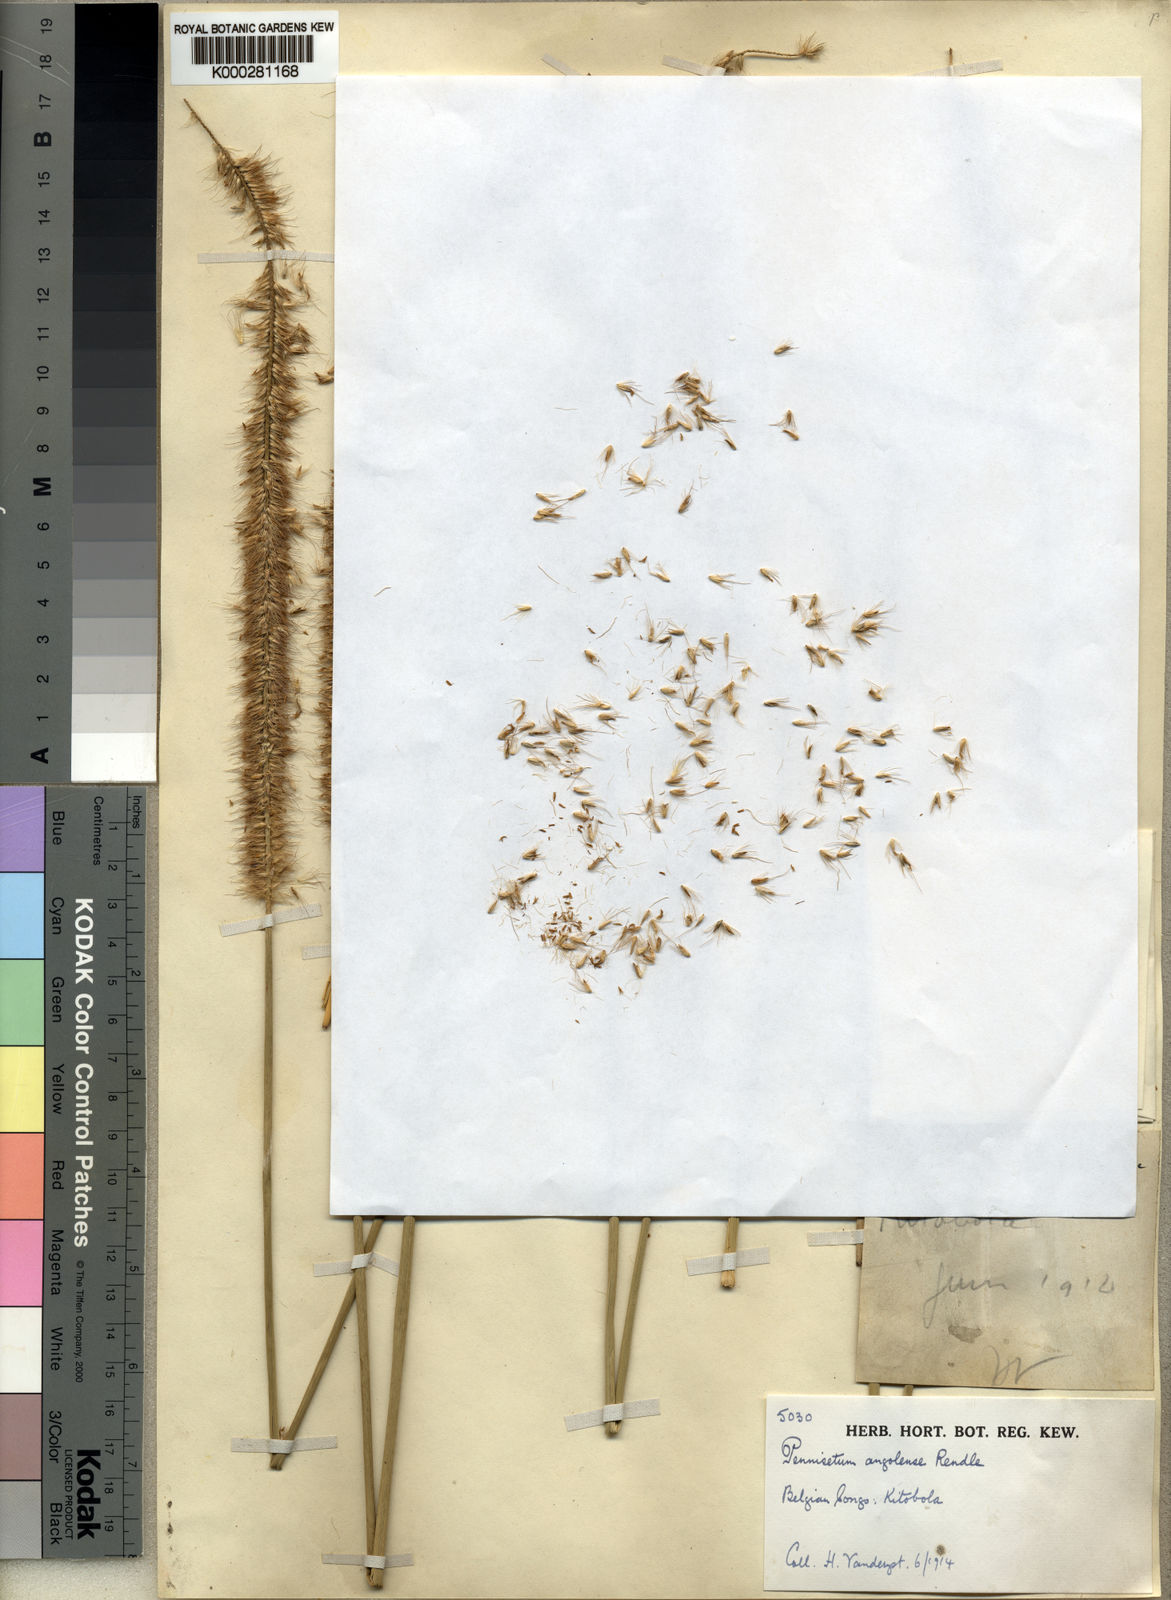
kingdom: Plantae
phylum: Tracheophyta
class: Liliopsida
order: Poales
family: Poaceae
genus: Cenchrus
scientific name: Cenchrus caudatus
